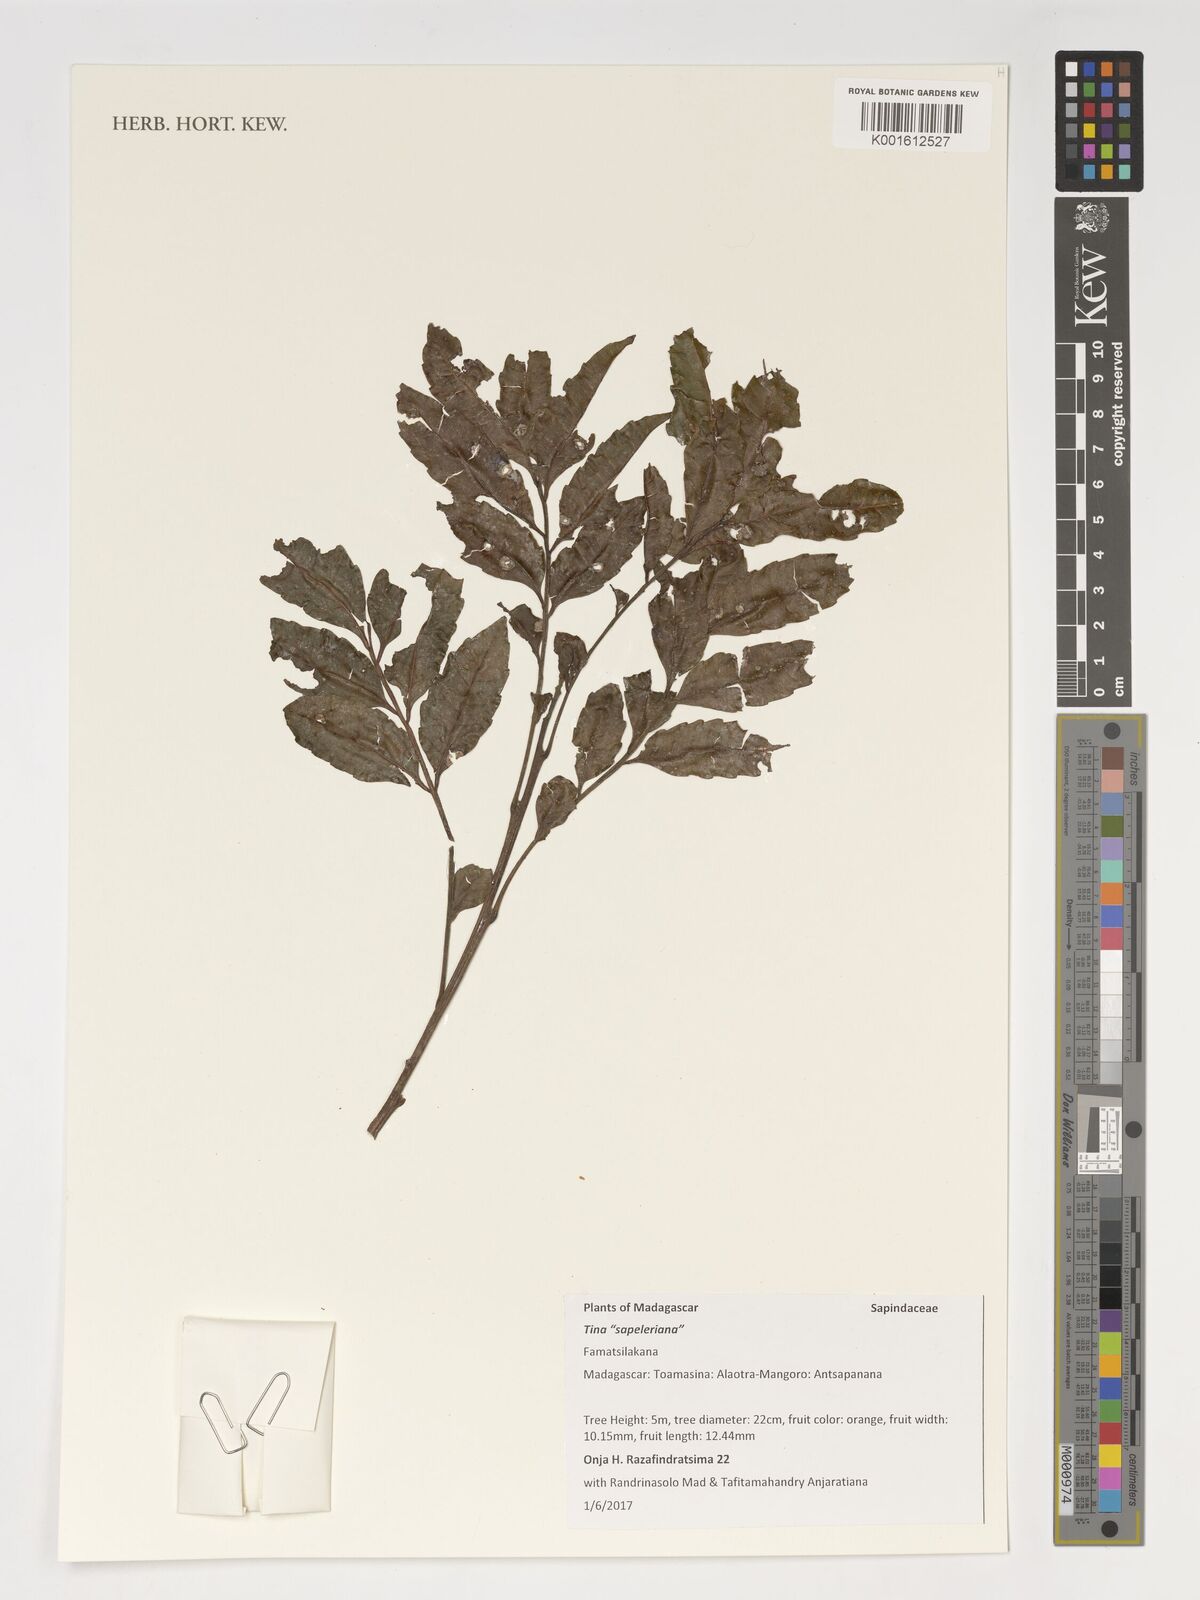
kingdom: Plantae
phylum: Tracheophyta
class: Magnoliopsida
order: Sapindales
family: Sapindaceae
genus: Tina
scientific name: Tina
